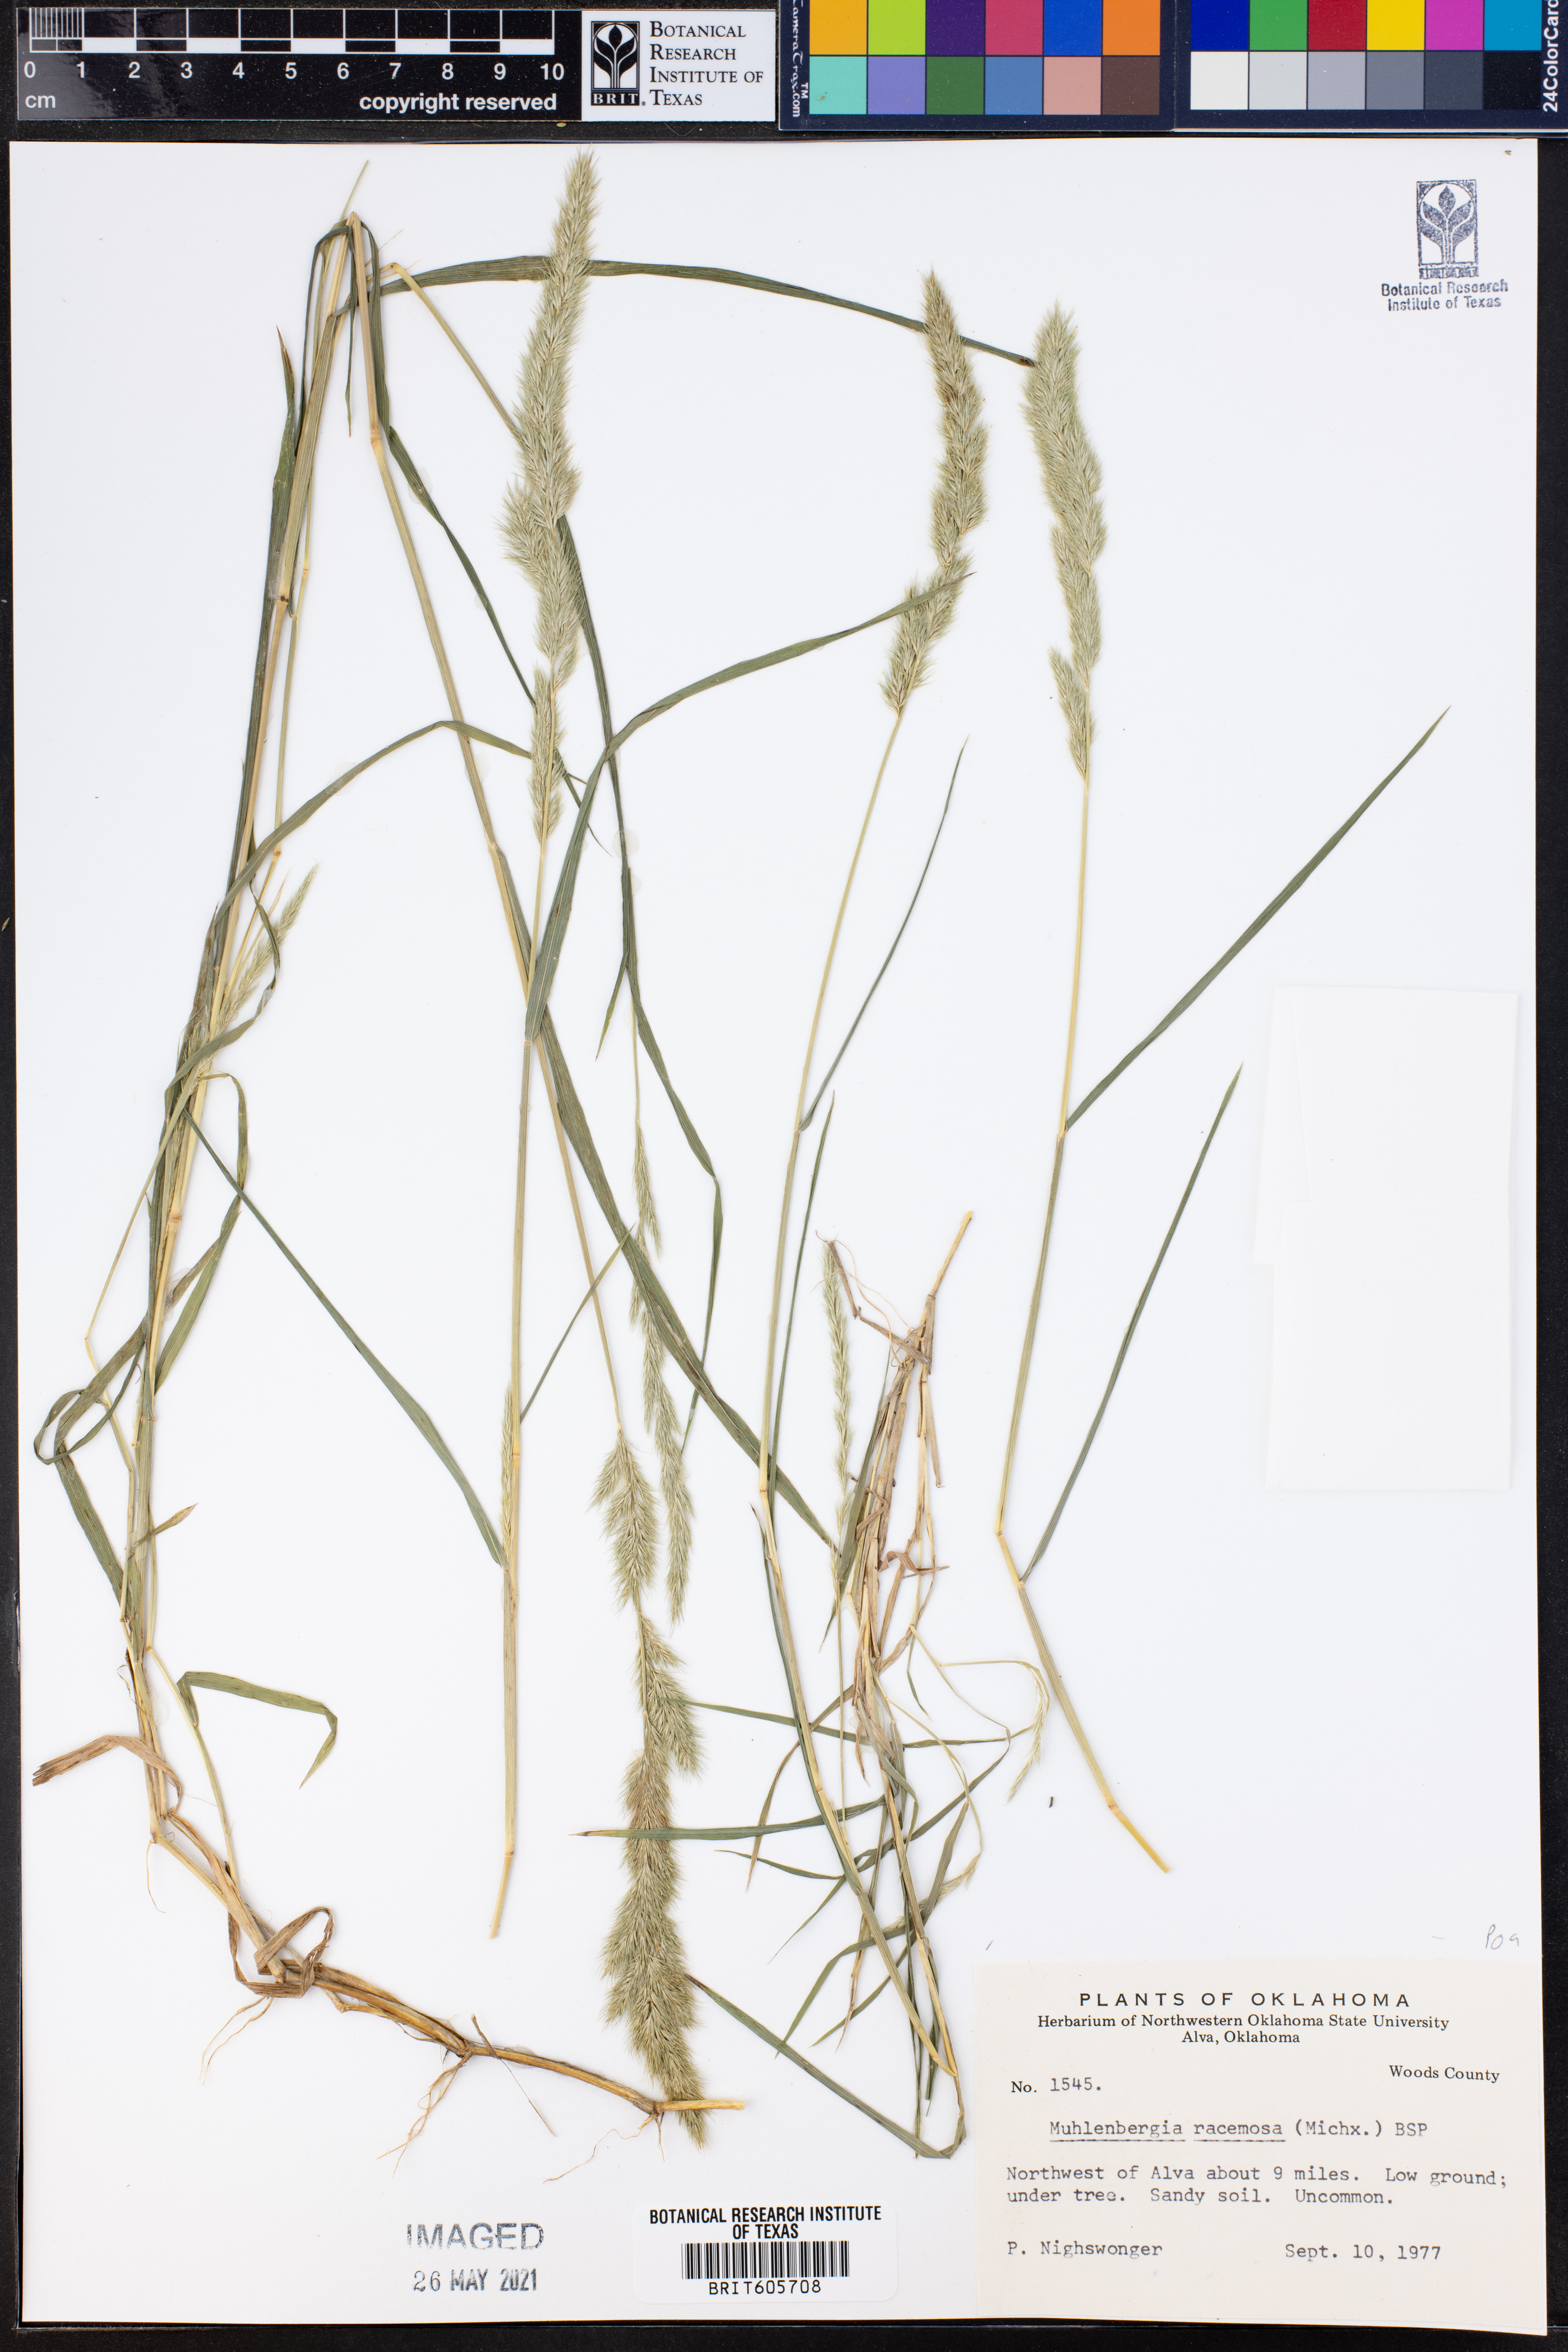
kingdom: Plantae
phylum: Tracheophyta
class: Liliopsida
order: Poales
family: Poaceae
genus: Muhlenbergia
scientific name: Muhlenbergia racemosa
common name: Green muhly
